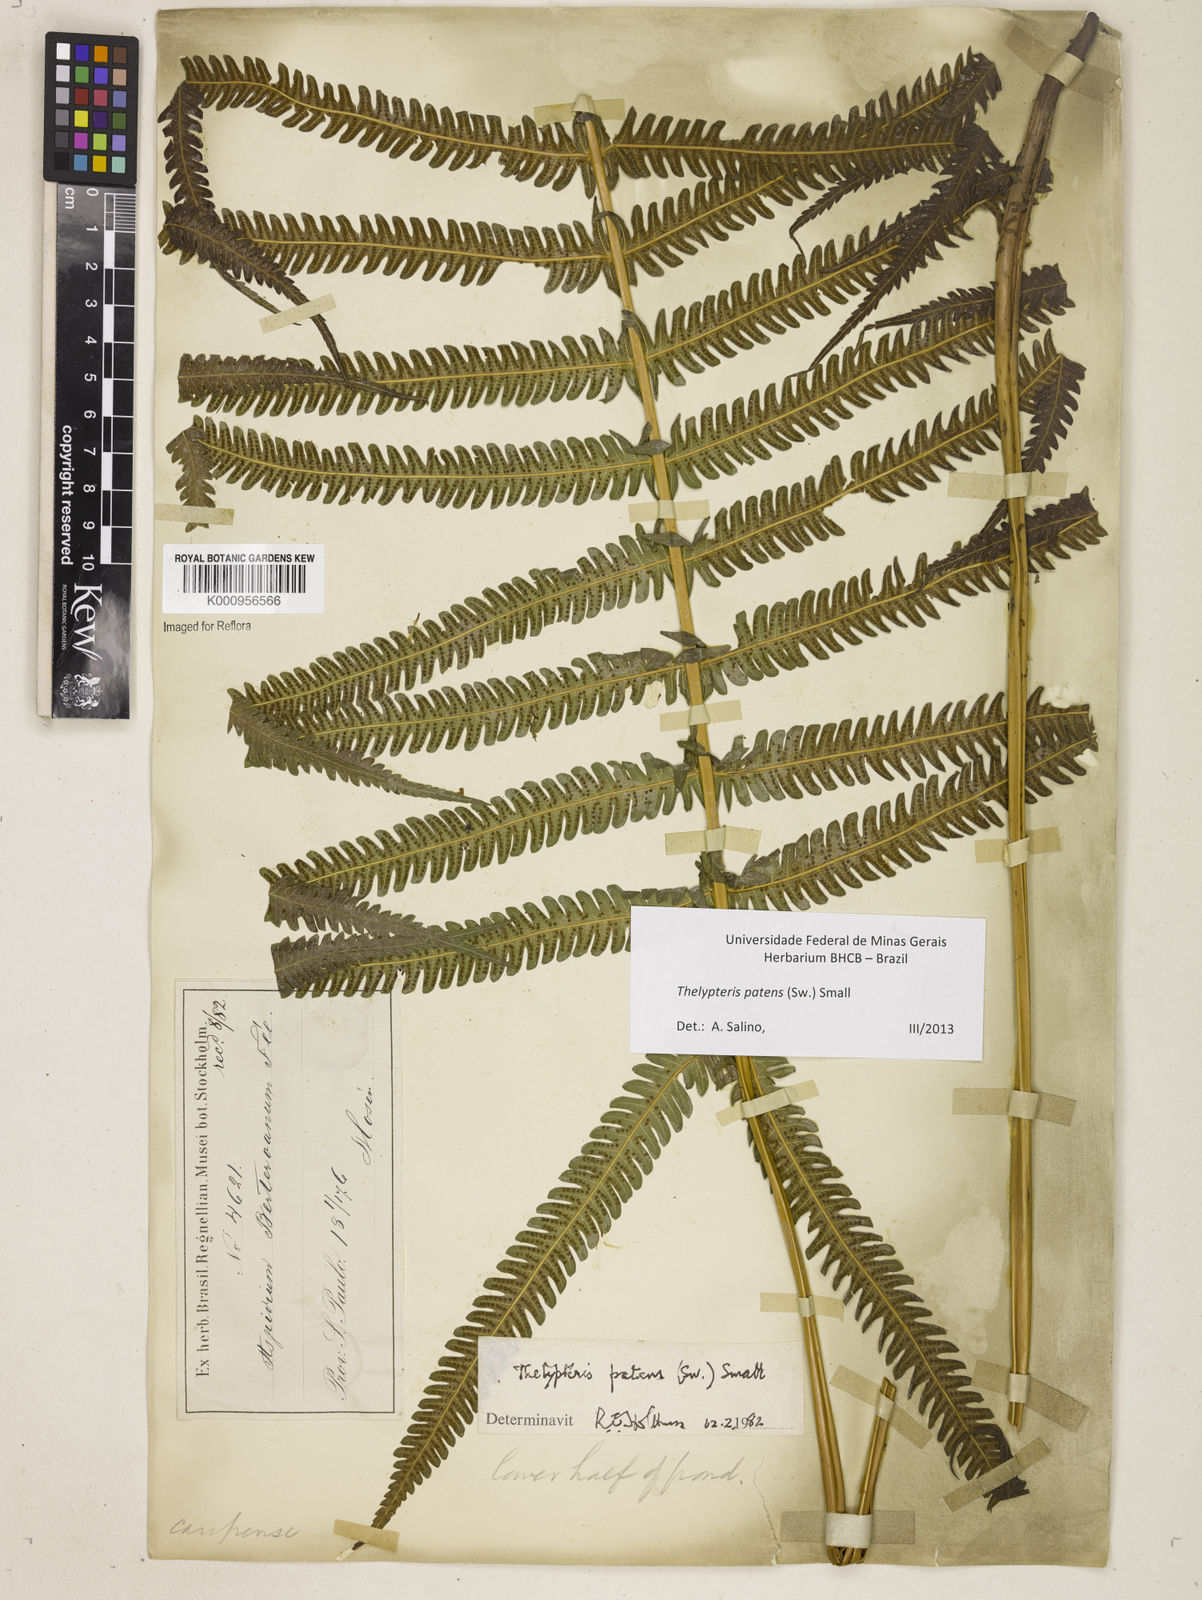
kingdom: Plantae
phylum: Tracheophyta
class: Polypodiopsida
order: Polypodiales
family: Thelypteridaceae
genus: Pelazoneuron
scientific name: Pelazoneuron patens
